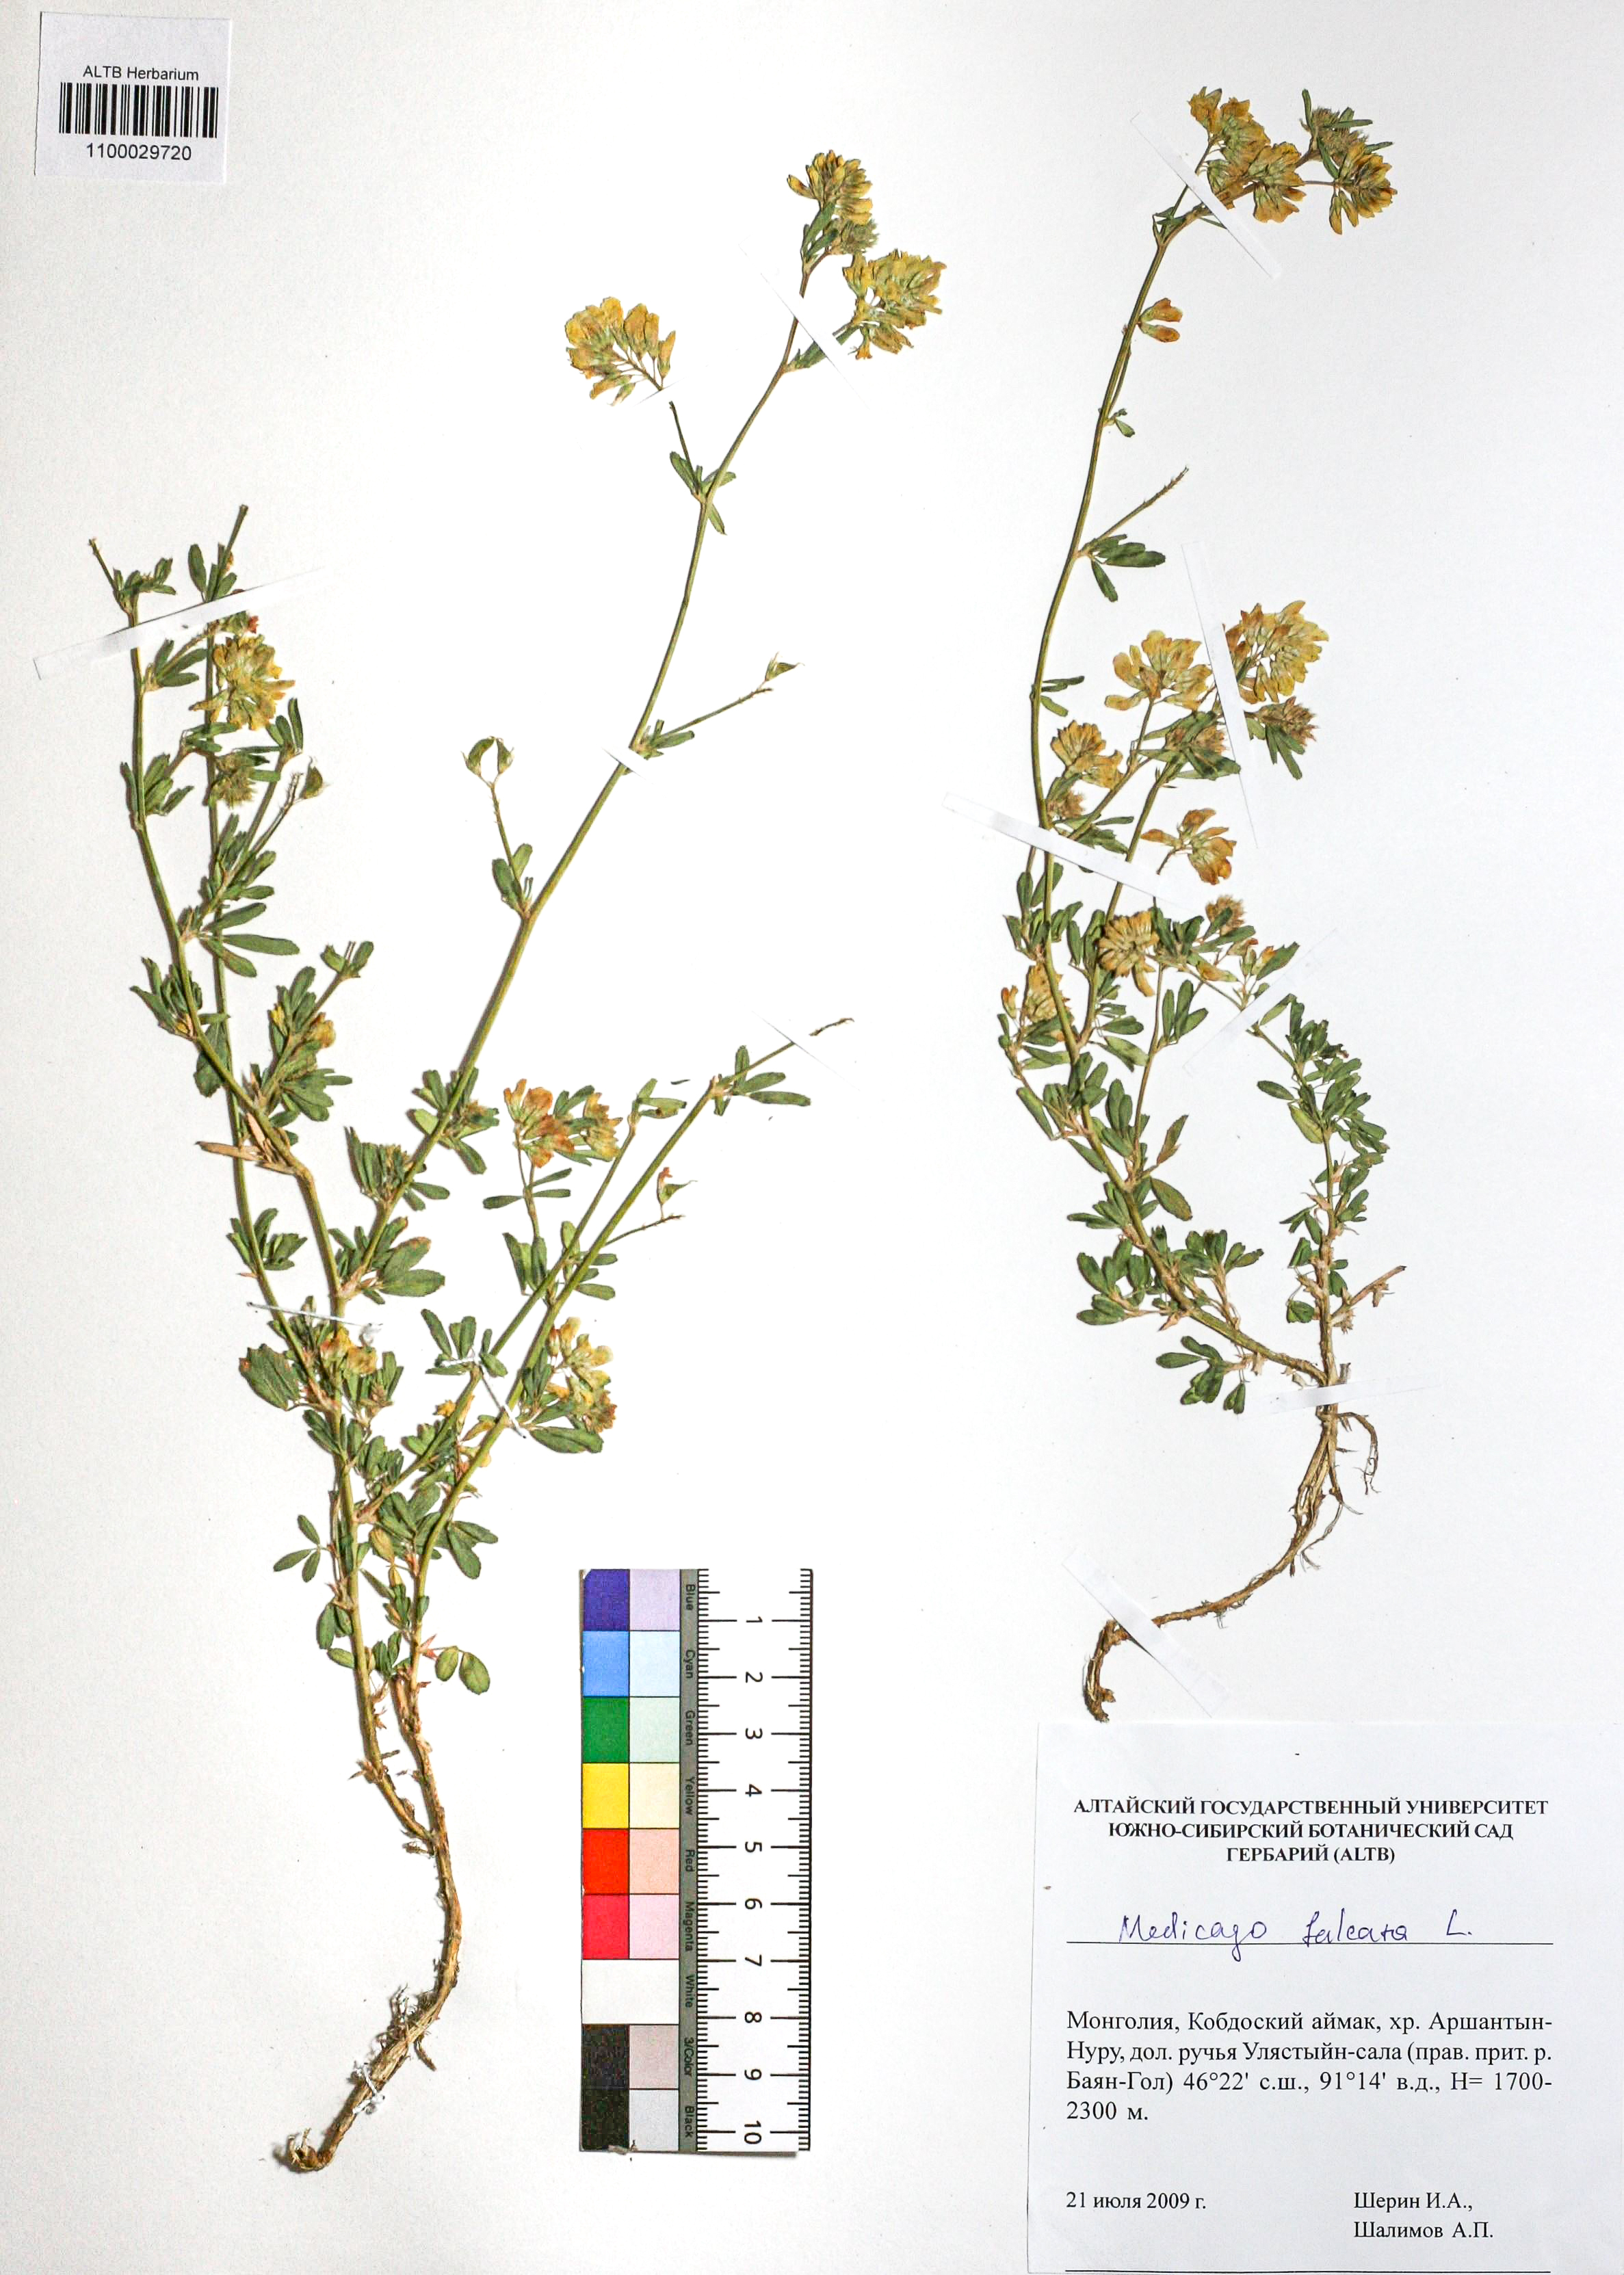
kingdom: Plantae
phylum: Tracheophyta
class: Magnoliopsida
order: Fabales
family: Fabaceae
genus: Medicago
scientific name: Medicago falcata
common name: Sickle medick
